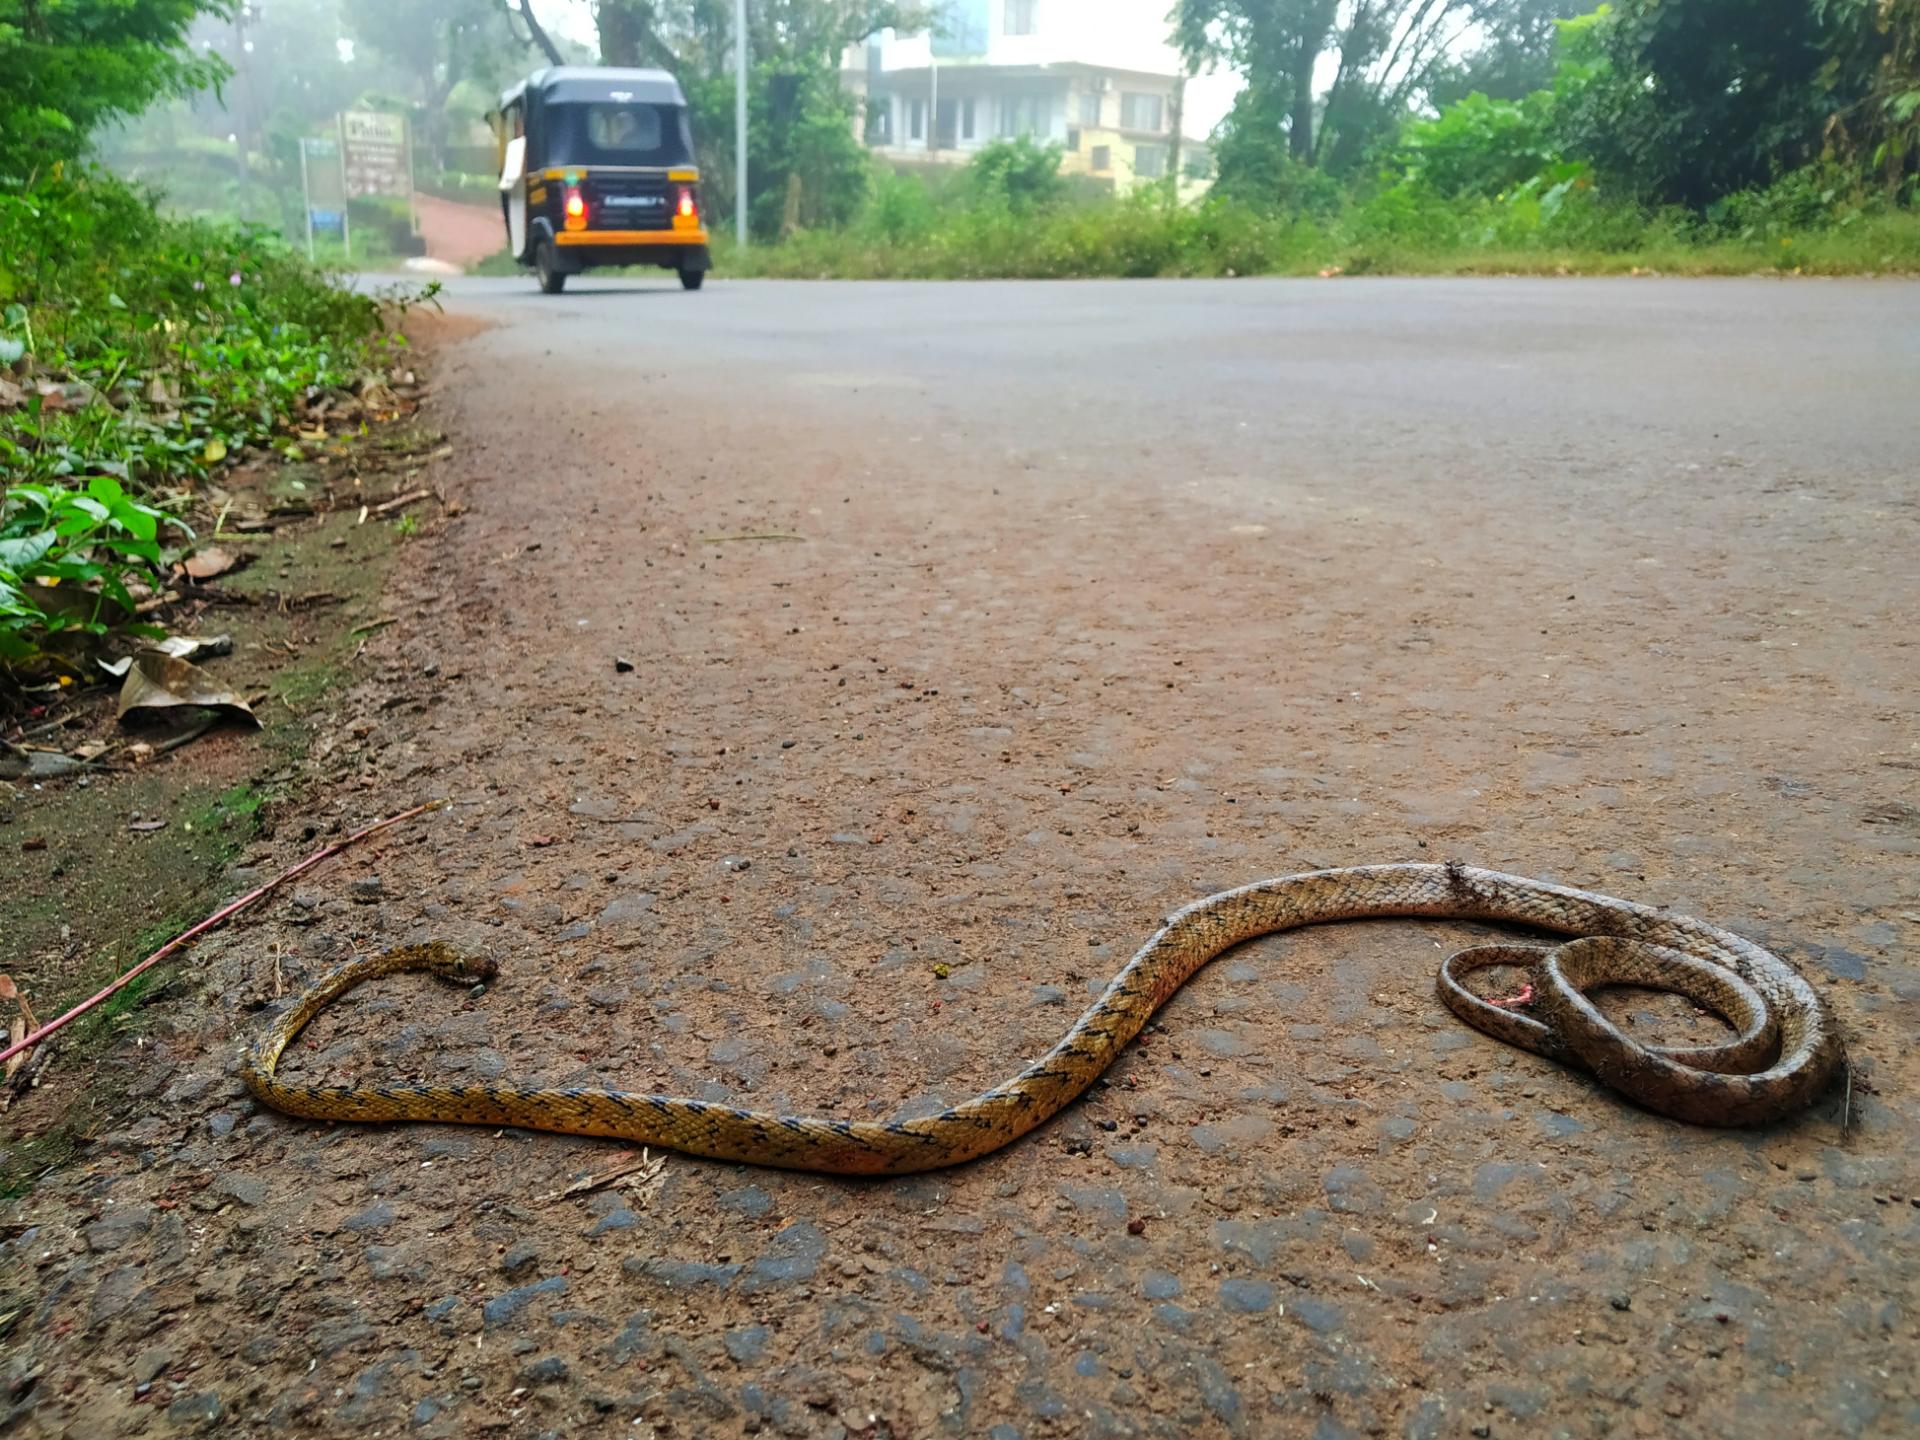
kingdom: Animalia
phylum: Chordata
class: Squamata
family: Colubridae
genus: Boiga
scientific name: Boiga forsteni
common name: Forsten's cat snake
